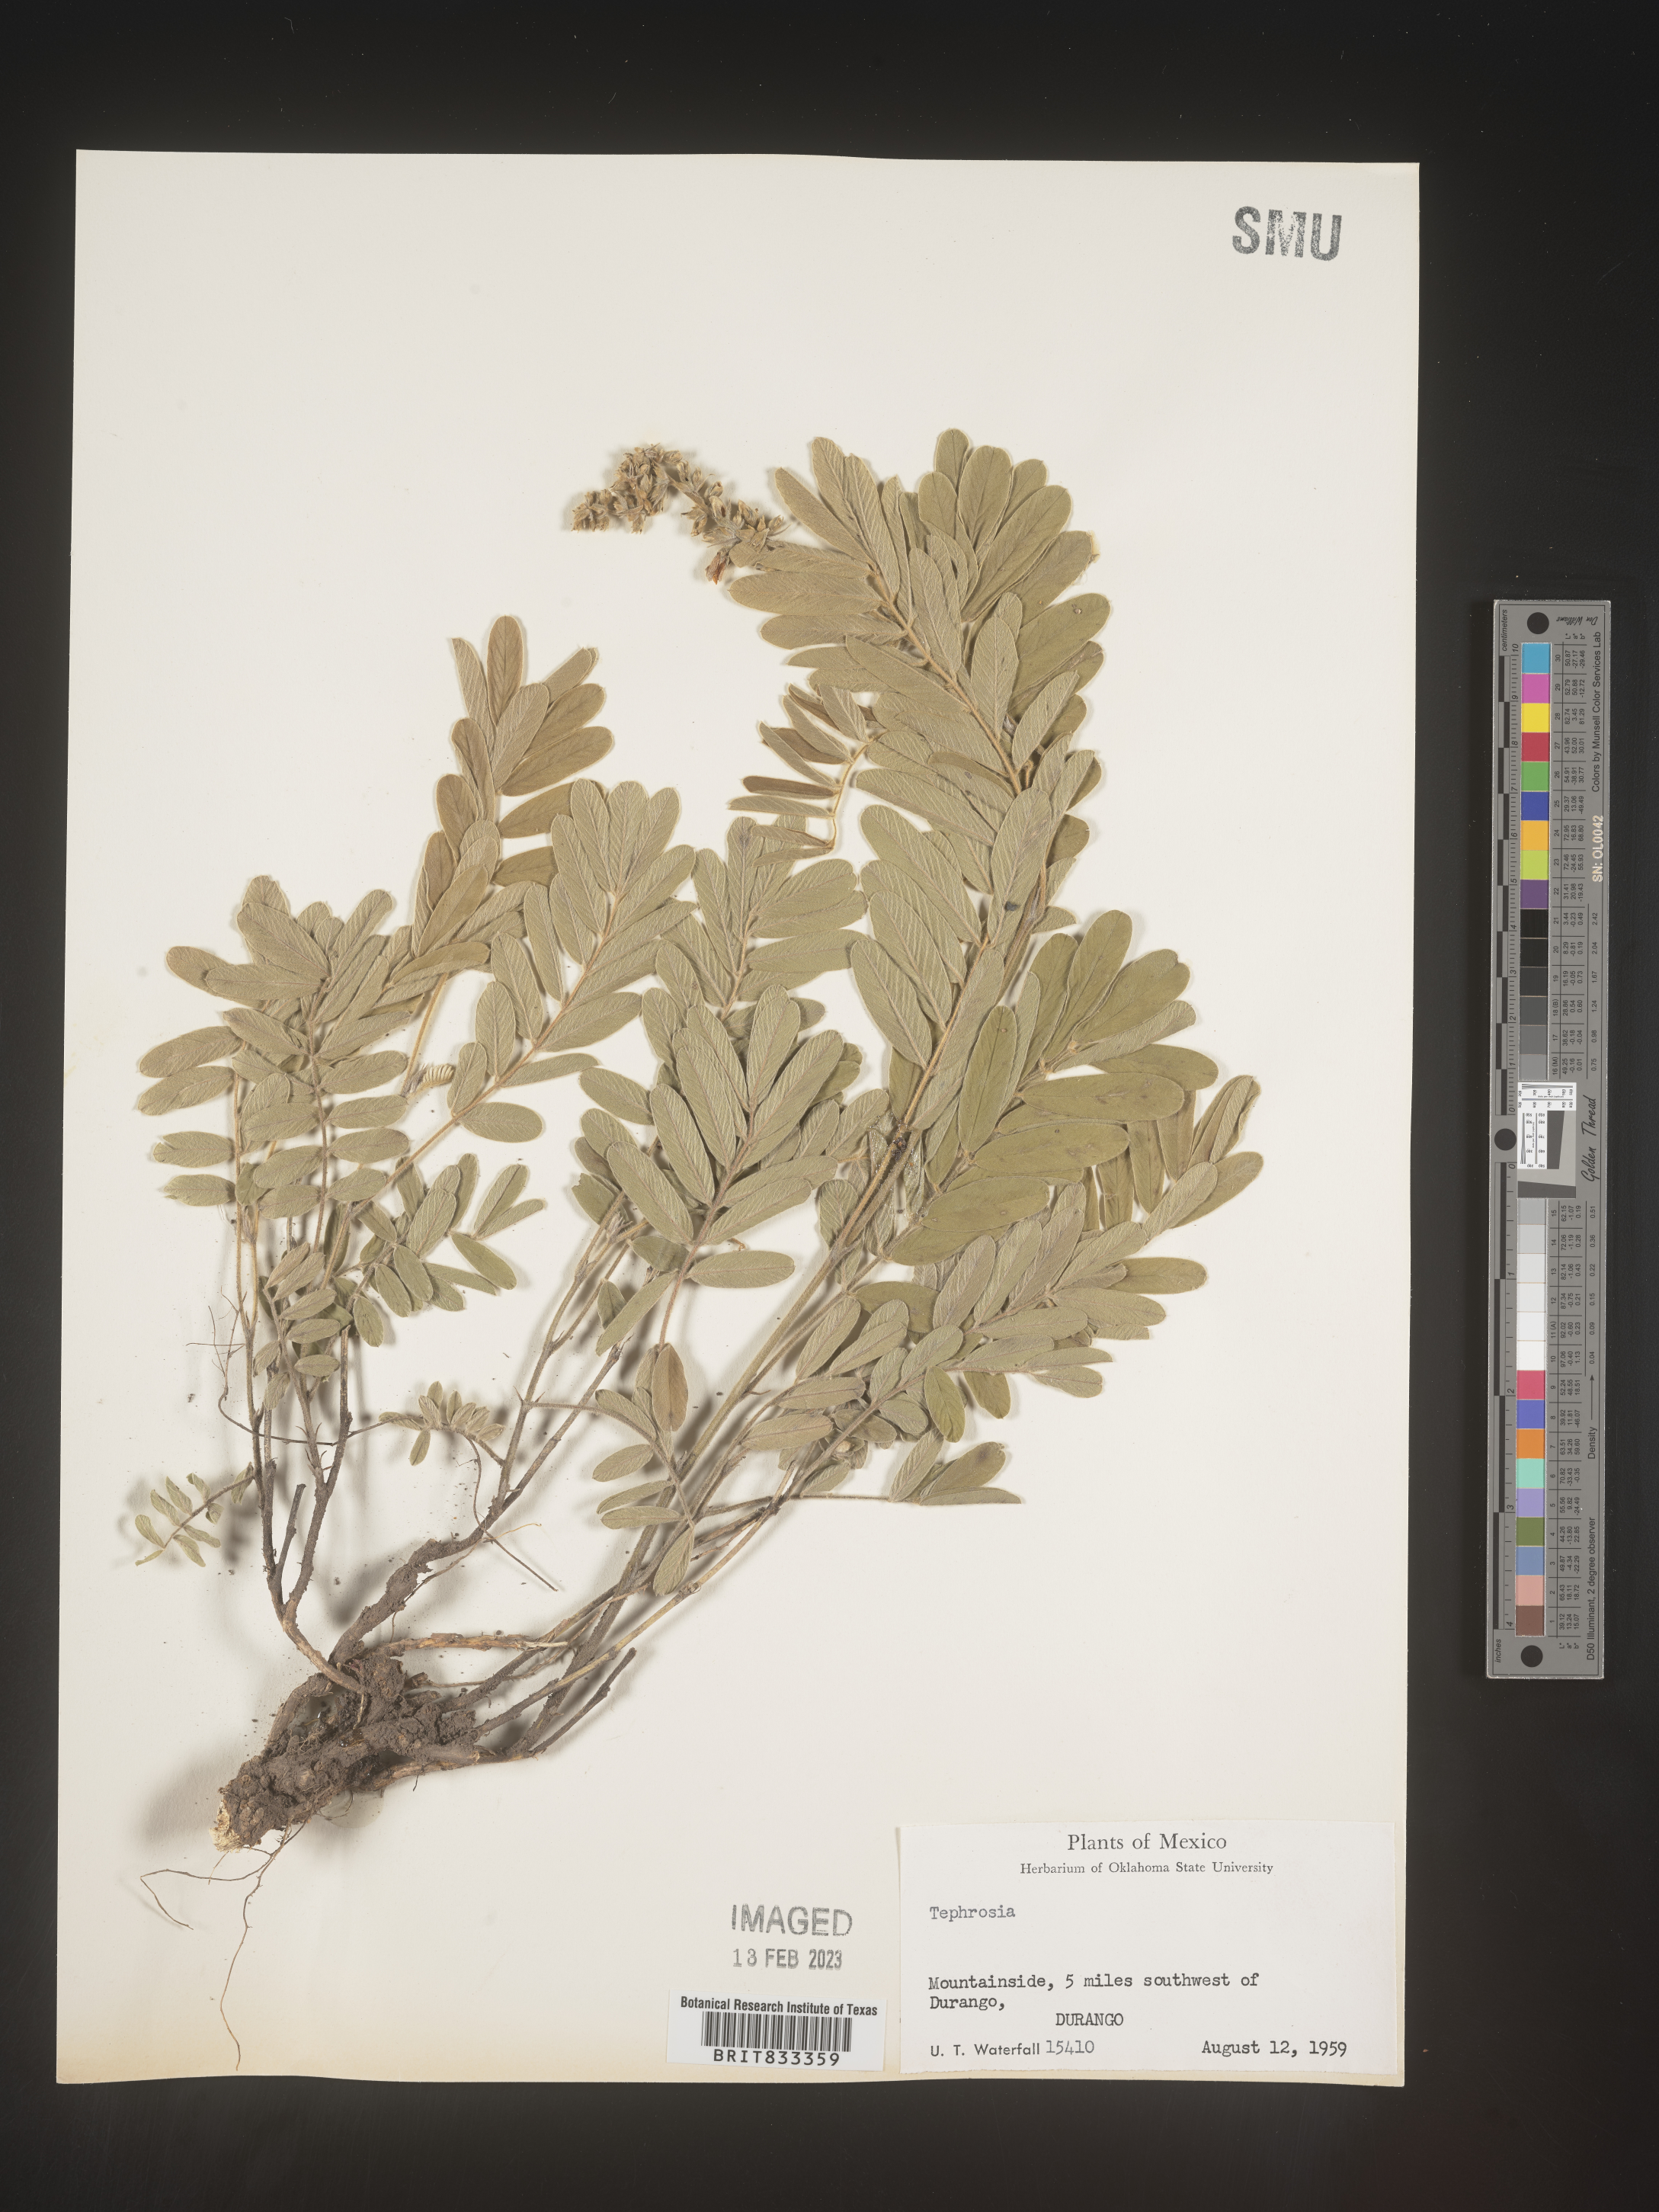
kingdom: Plantae
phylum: Tracheophyta
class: Magnoliopsida
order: Fabales
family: Fabaceae
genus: Tephrosia
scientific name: Tephrosia
